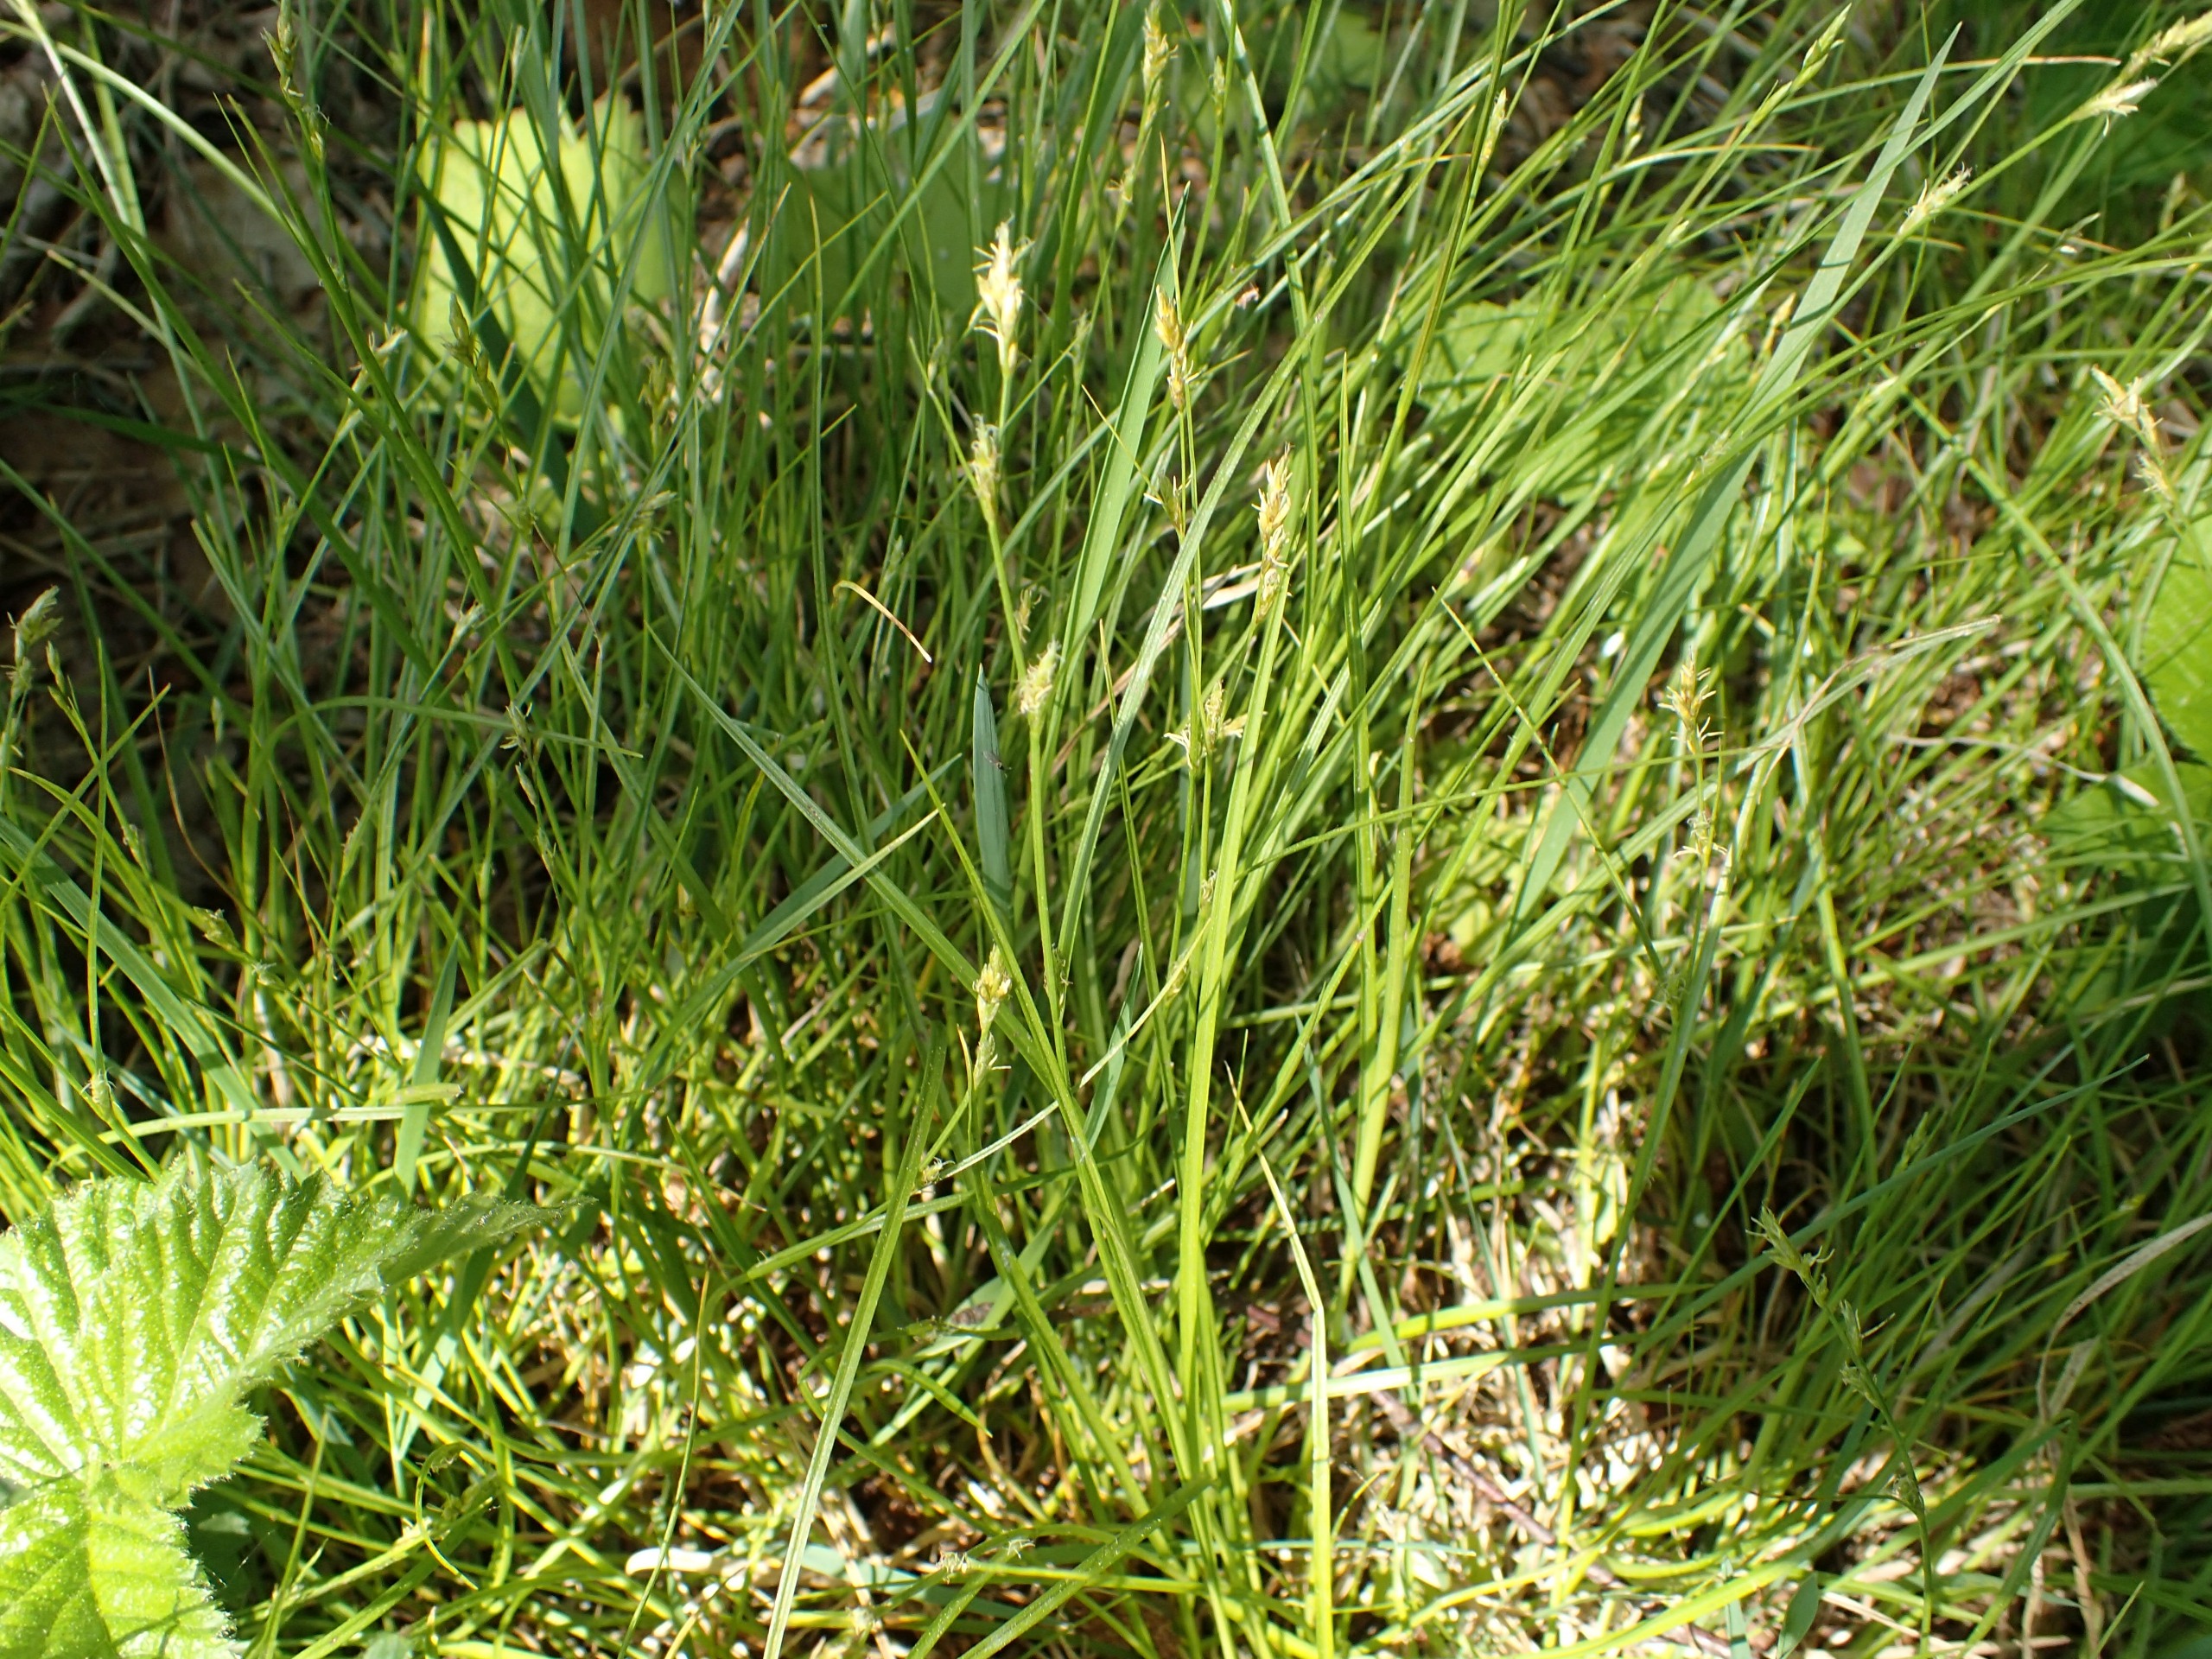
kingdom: Plantae
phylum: Tracheophyta
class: Liliopsida
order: Poales
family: Cyperaceae
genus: Carex
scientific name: Carex remota
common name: Akselblomstret star
